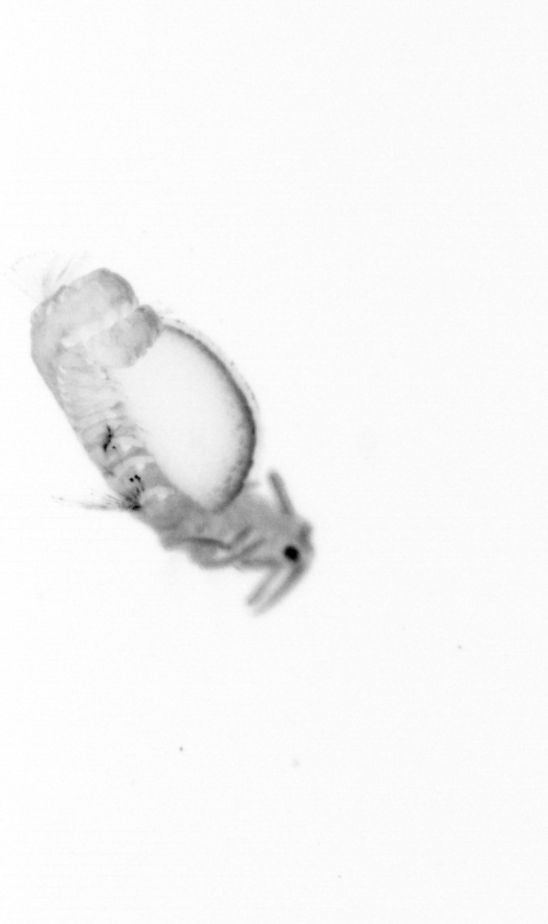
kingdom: Animalia
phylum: Annelida
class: Polychaeta
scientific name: Polychaeta
